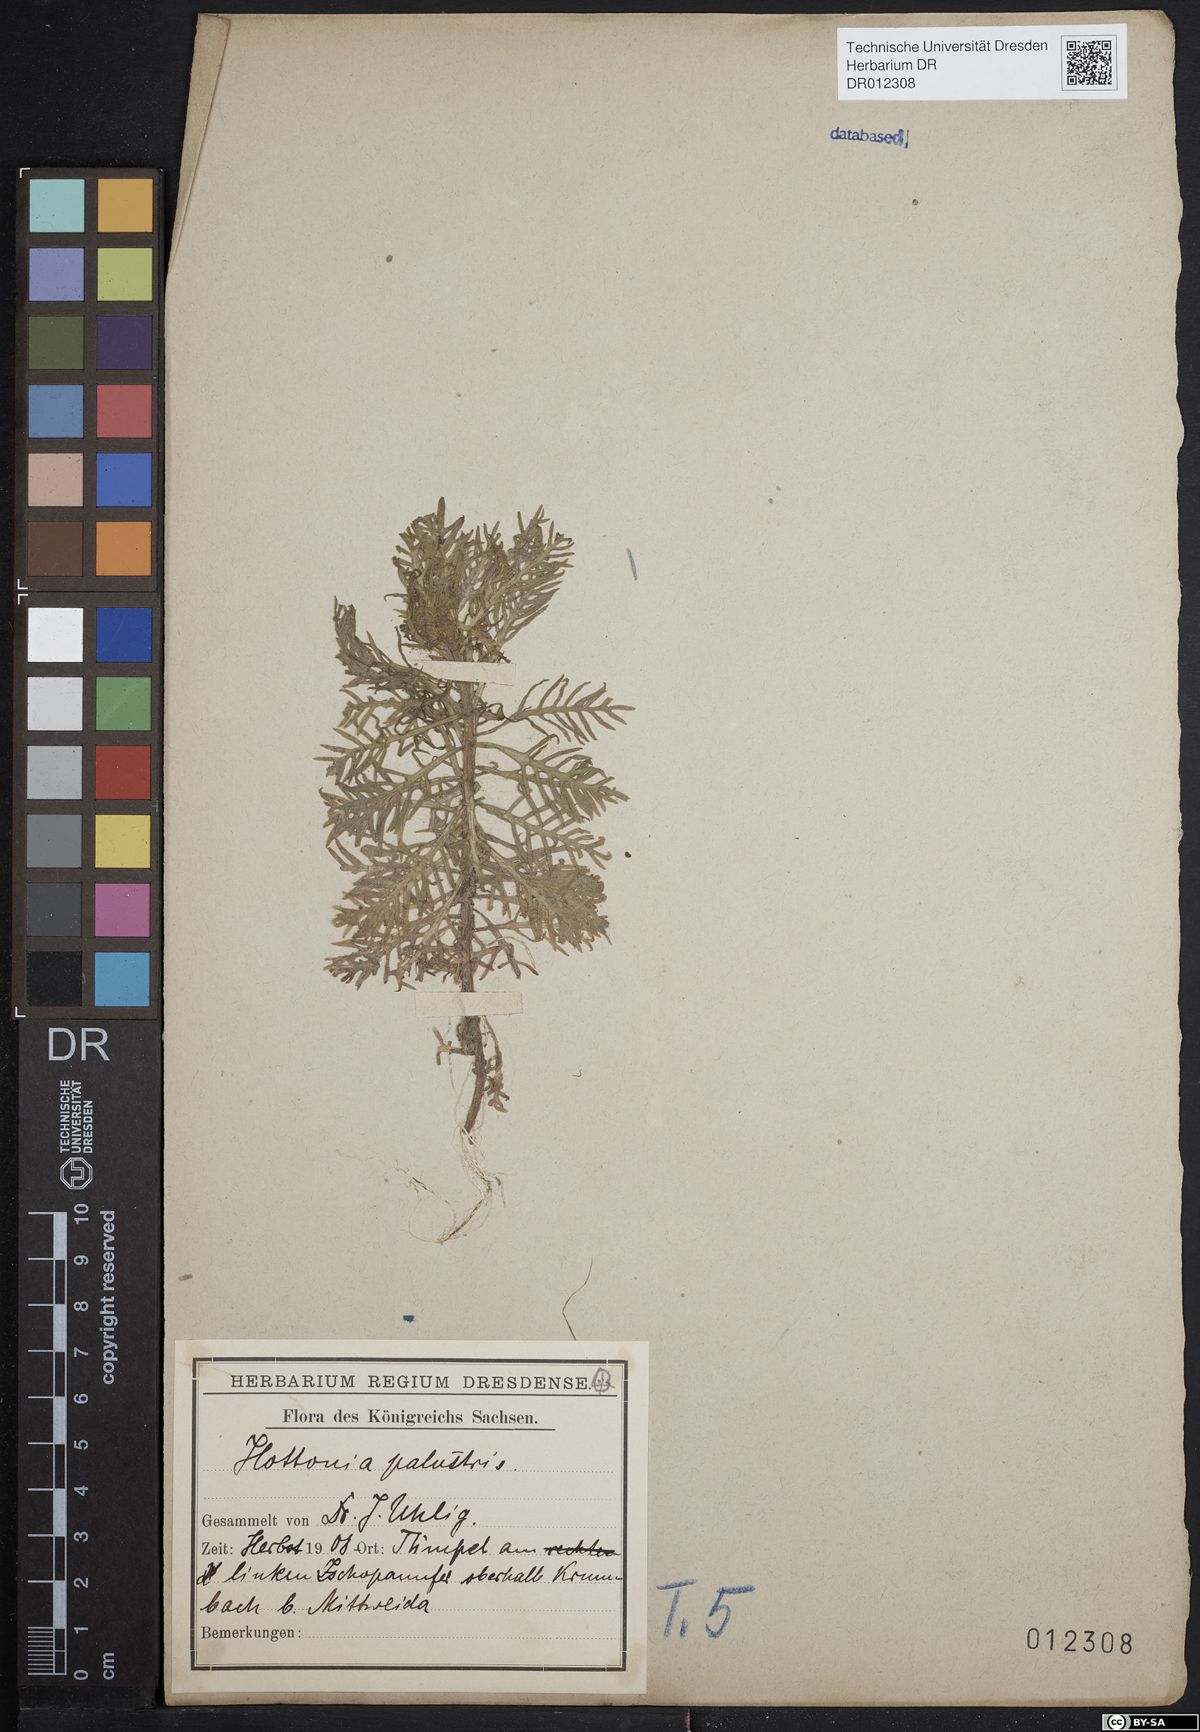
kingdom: Plantae
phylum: Tracheophyta
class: Magnoliopsida
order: Ericales
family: Primulaceae
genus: Hottonia
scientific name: Hottonia palustris
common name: Water-violet
